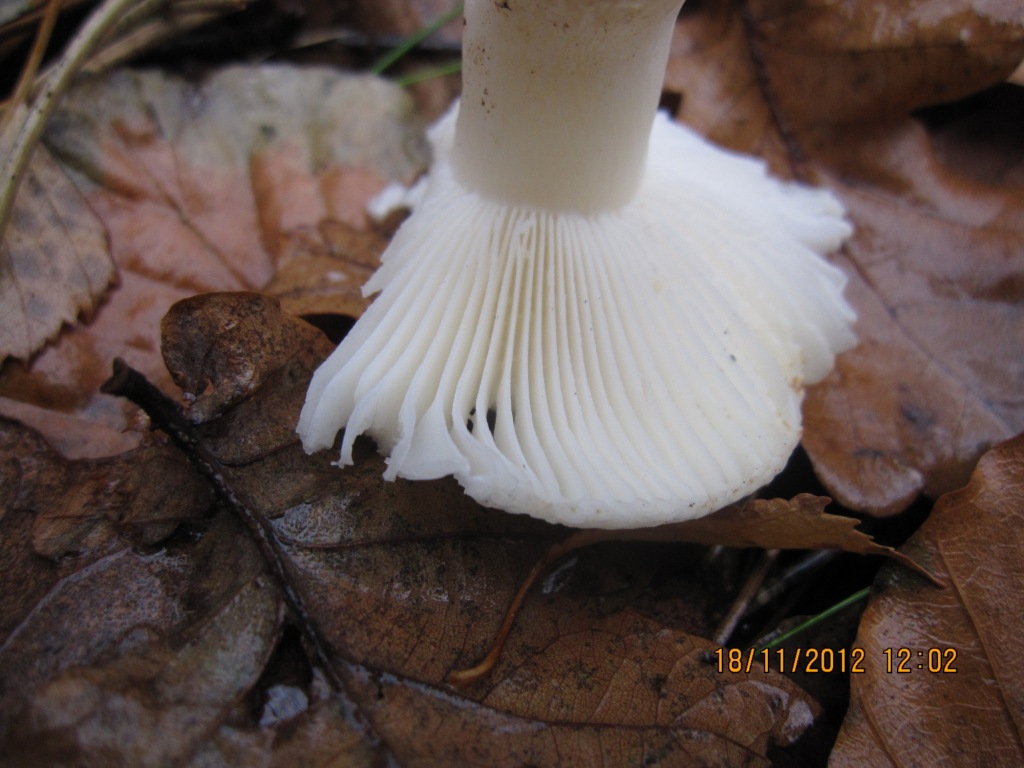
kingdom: Fungi
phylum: Basidiomycota
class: Agaricomycetes
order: Russulales
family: Russulaceae
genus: Russula
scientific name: Russula fragilis
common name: Fragile brittlegill
